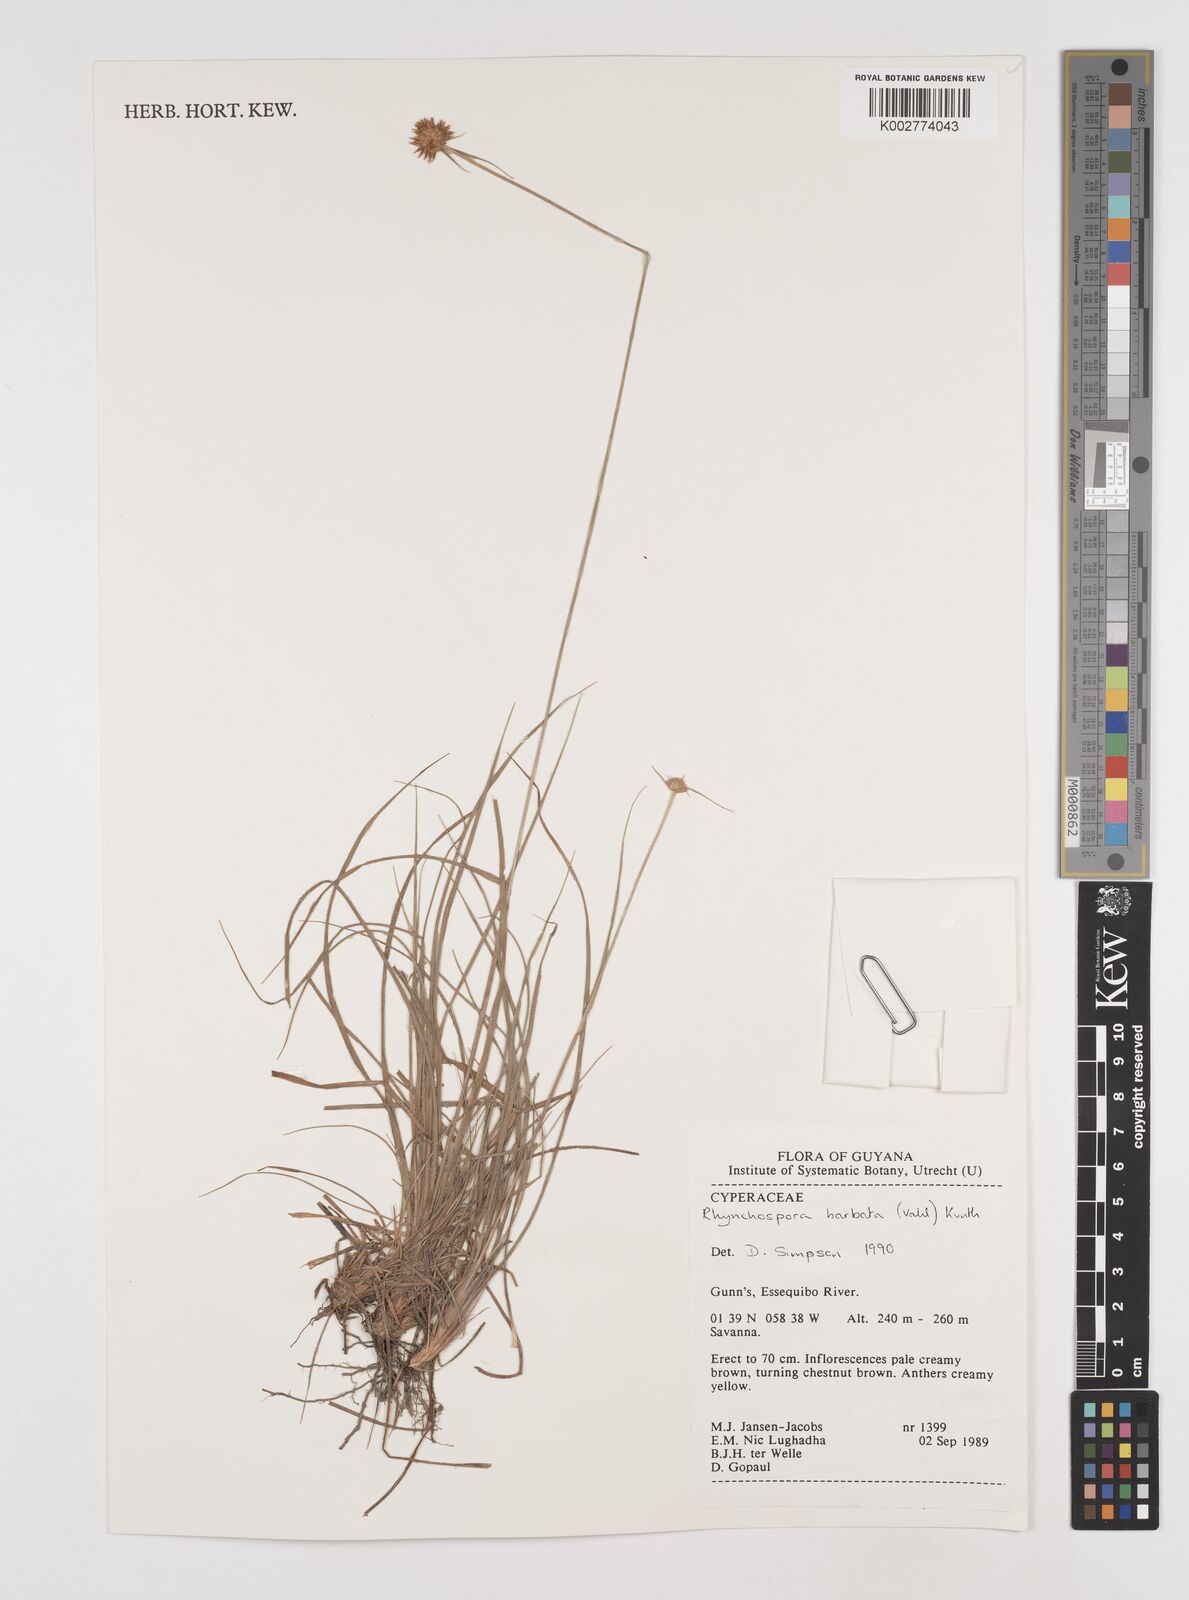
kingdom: Plantae
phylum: Tracheophyta
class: Liliopsida
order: Poales
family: Cyperaceae
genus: Rhynchospora
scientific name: Rhynchospora barbata
